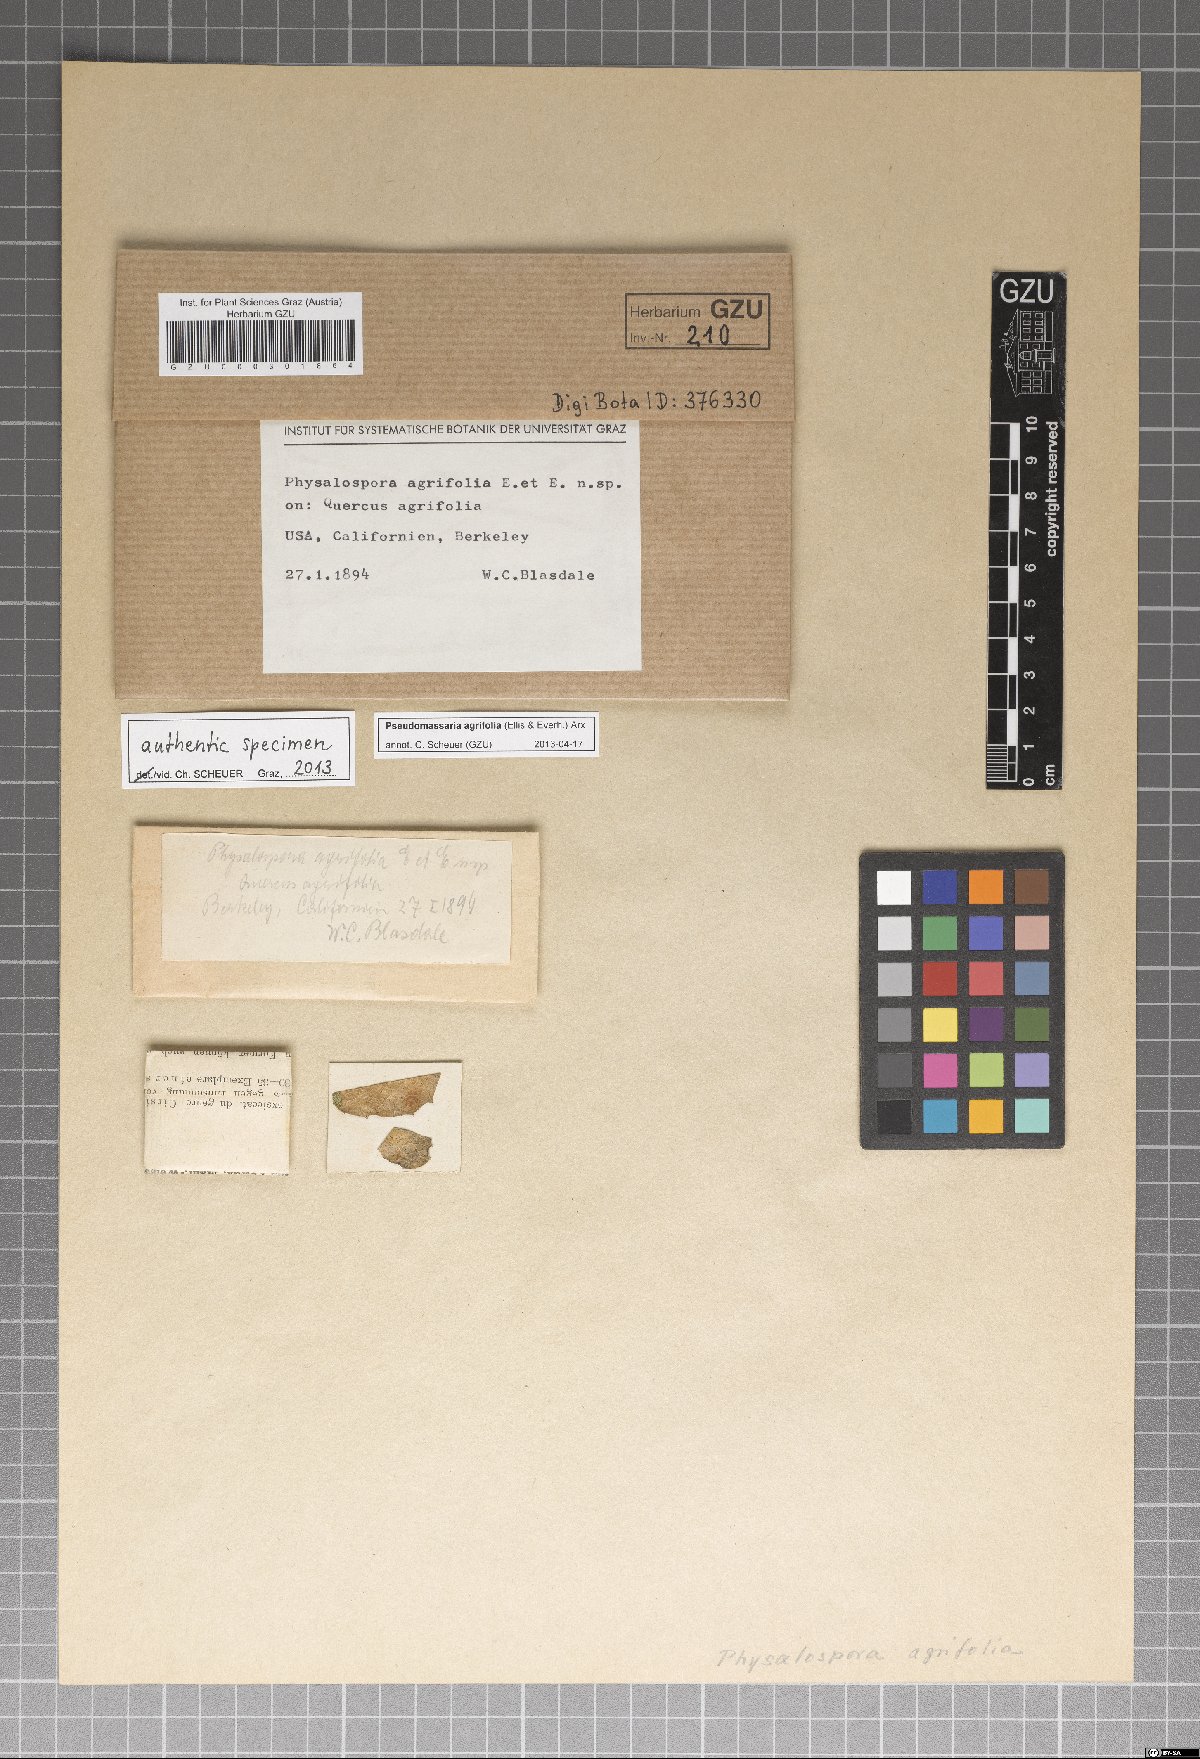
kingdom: Fungi
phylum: Ascomycota
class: Sordariomycetes
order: Xylariales
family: Pseudomassariaceae
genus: Pseudomassaria
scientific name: Pseudomassaria agrifoliae
